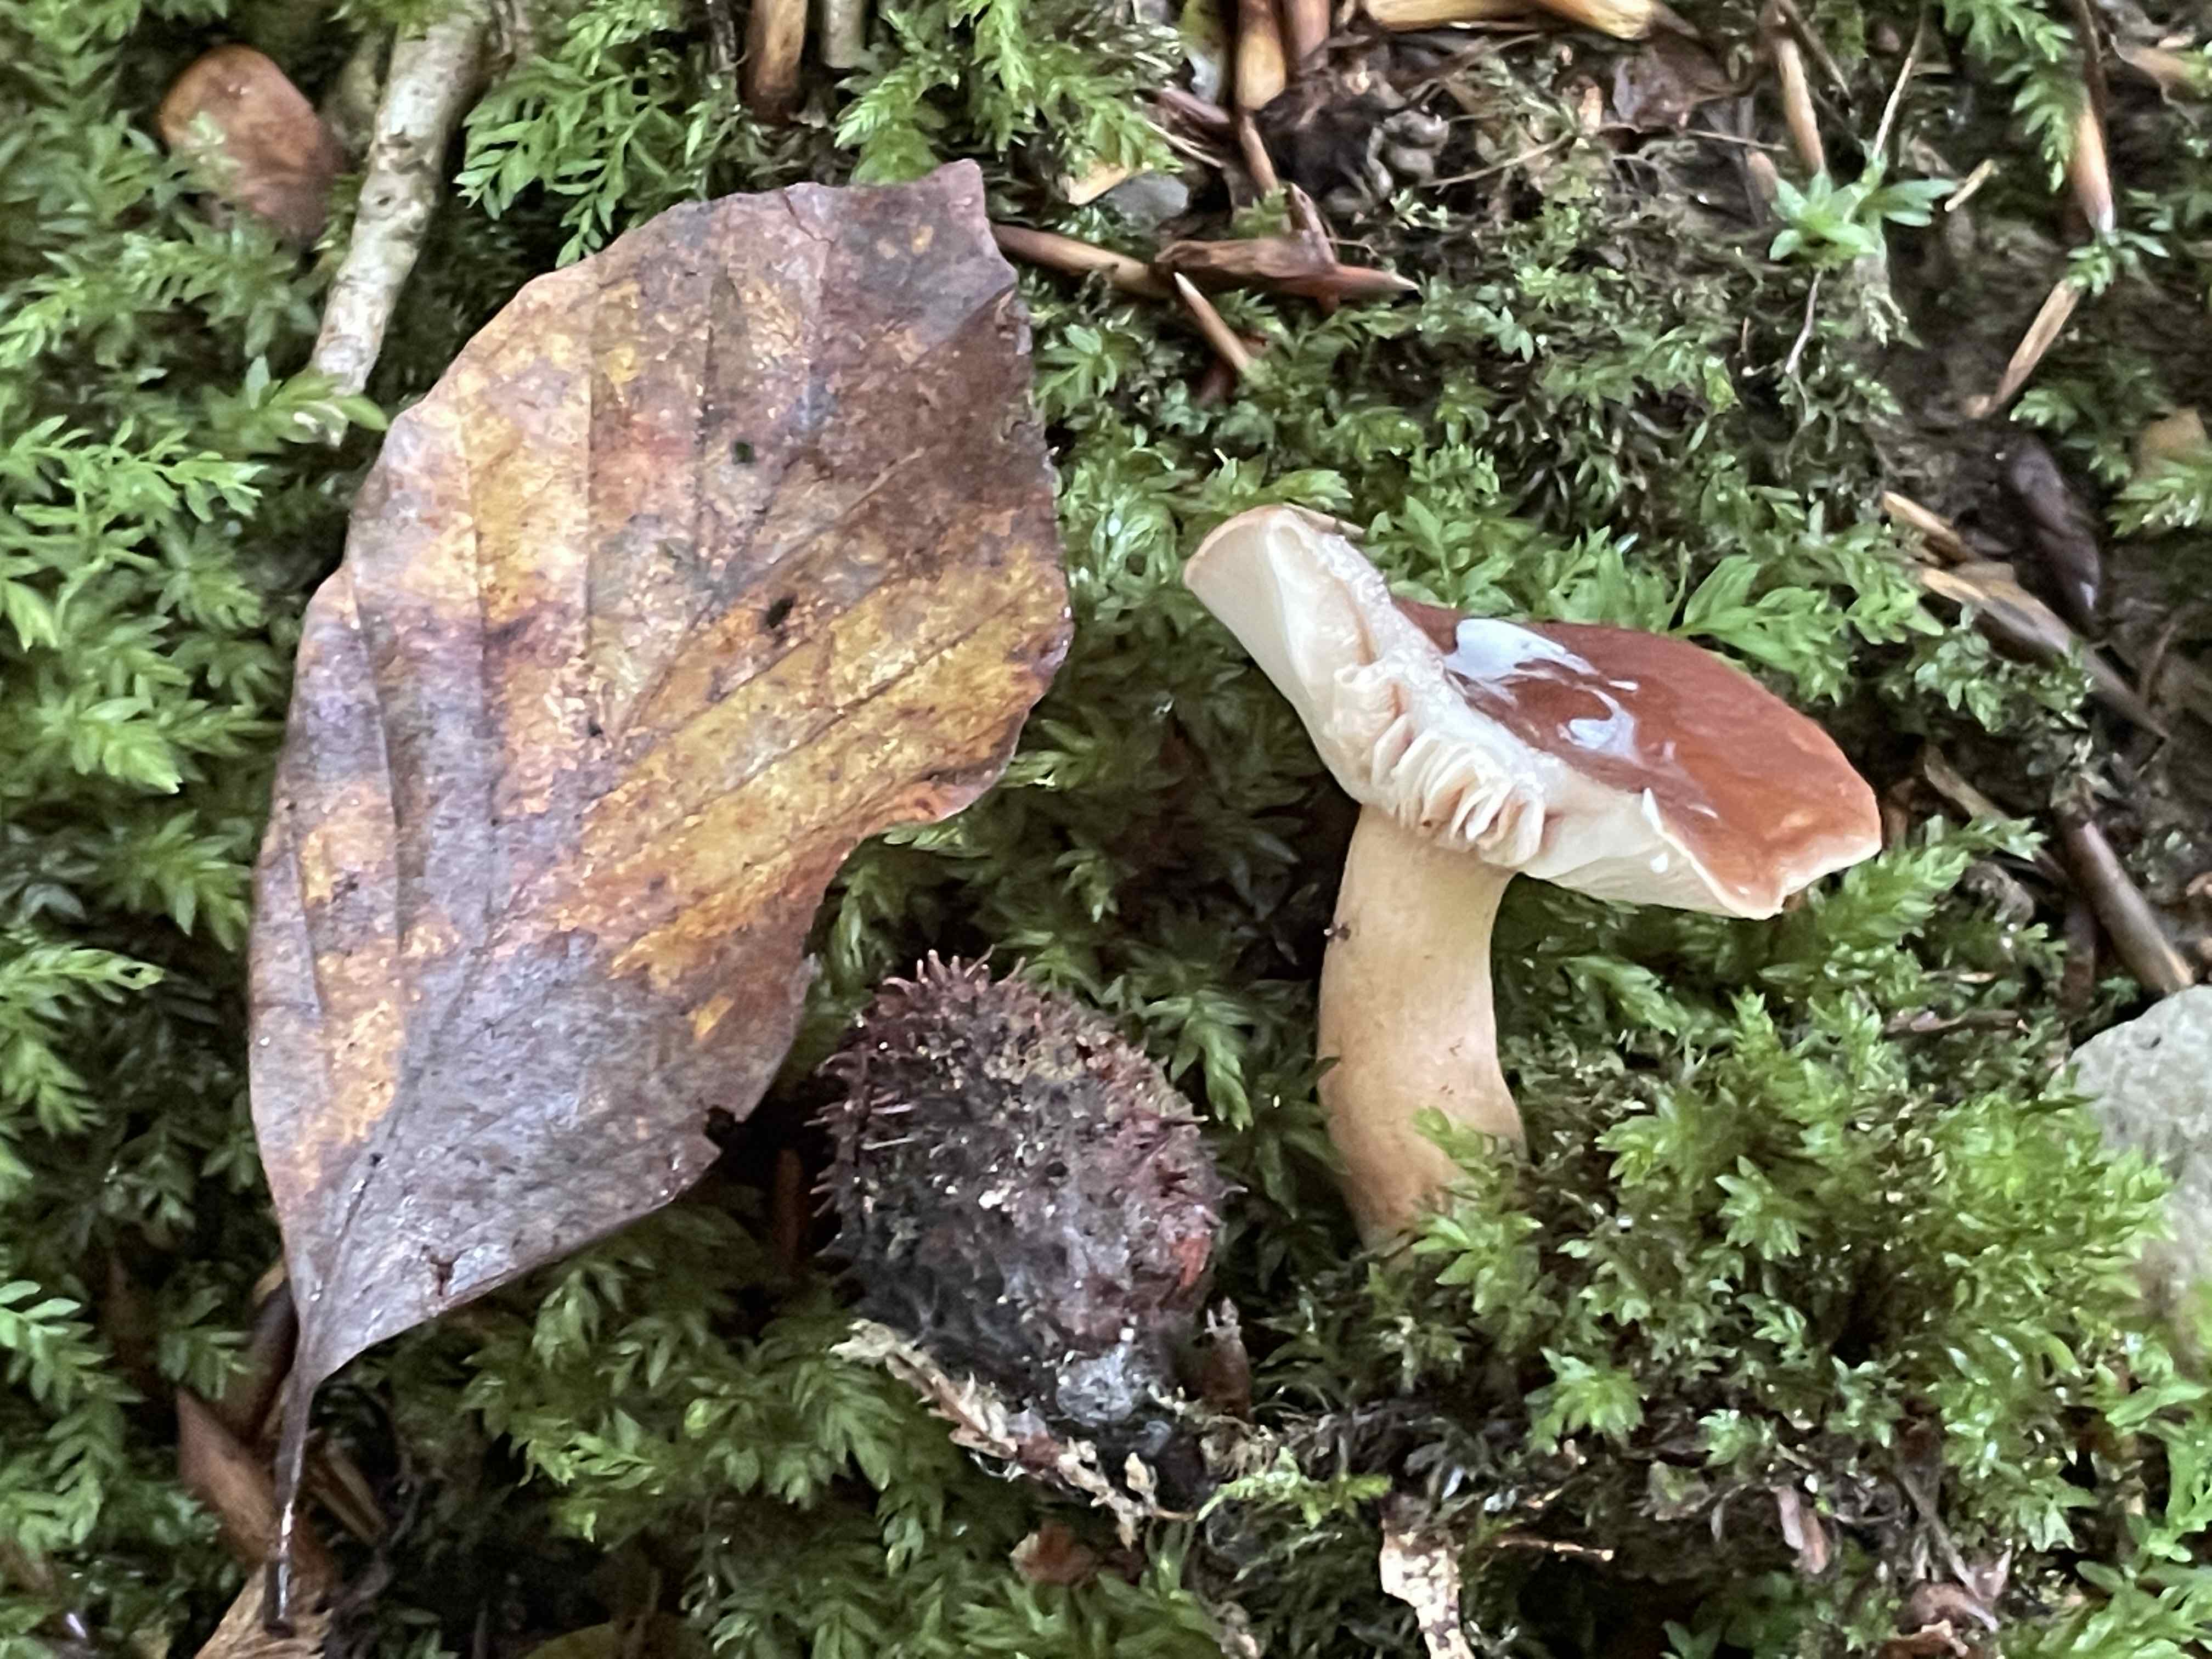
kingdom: Fungi
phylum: Basidiomycota
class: Agaricomycetes
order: Russulales
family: Russulaceae
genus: Lactarius
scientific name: Lactarius subdulcis
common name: sødlig mælkehat
